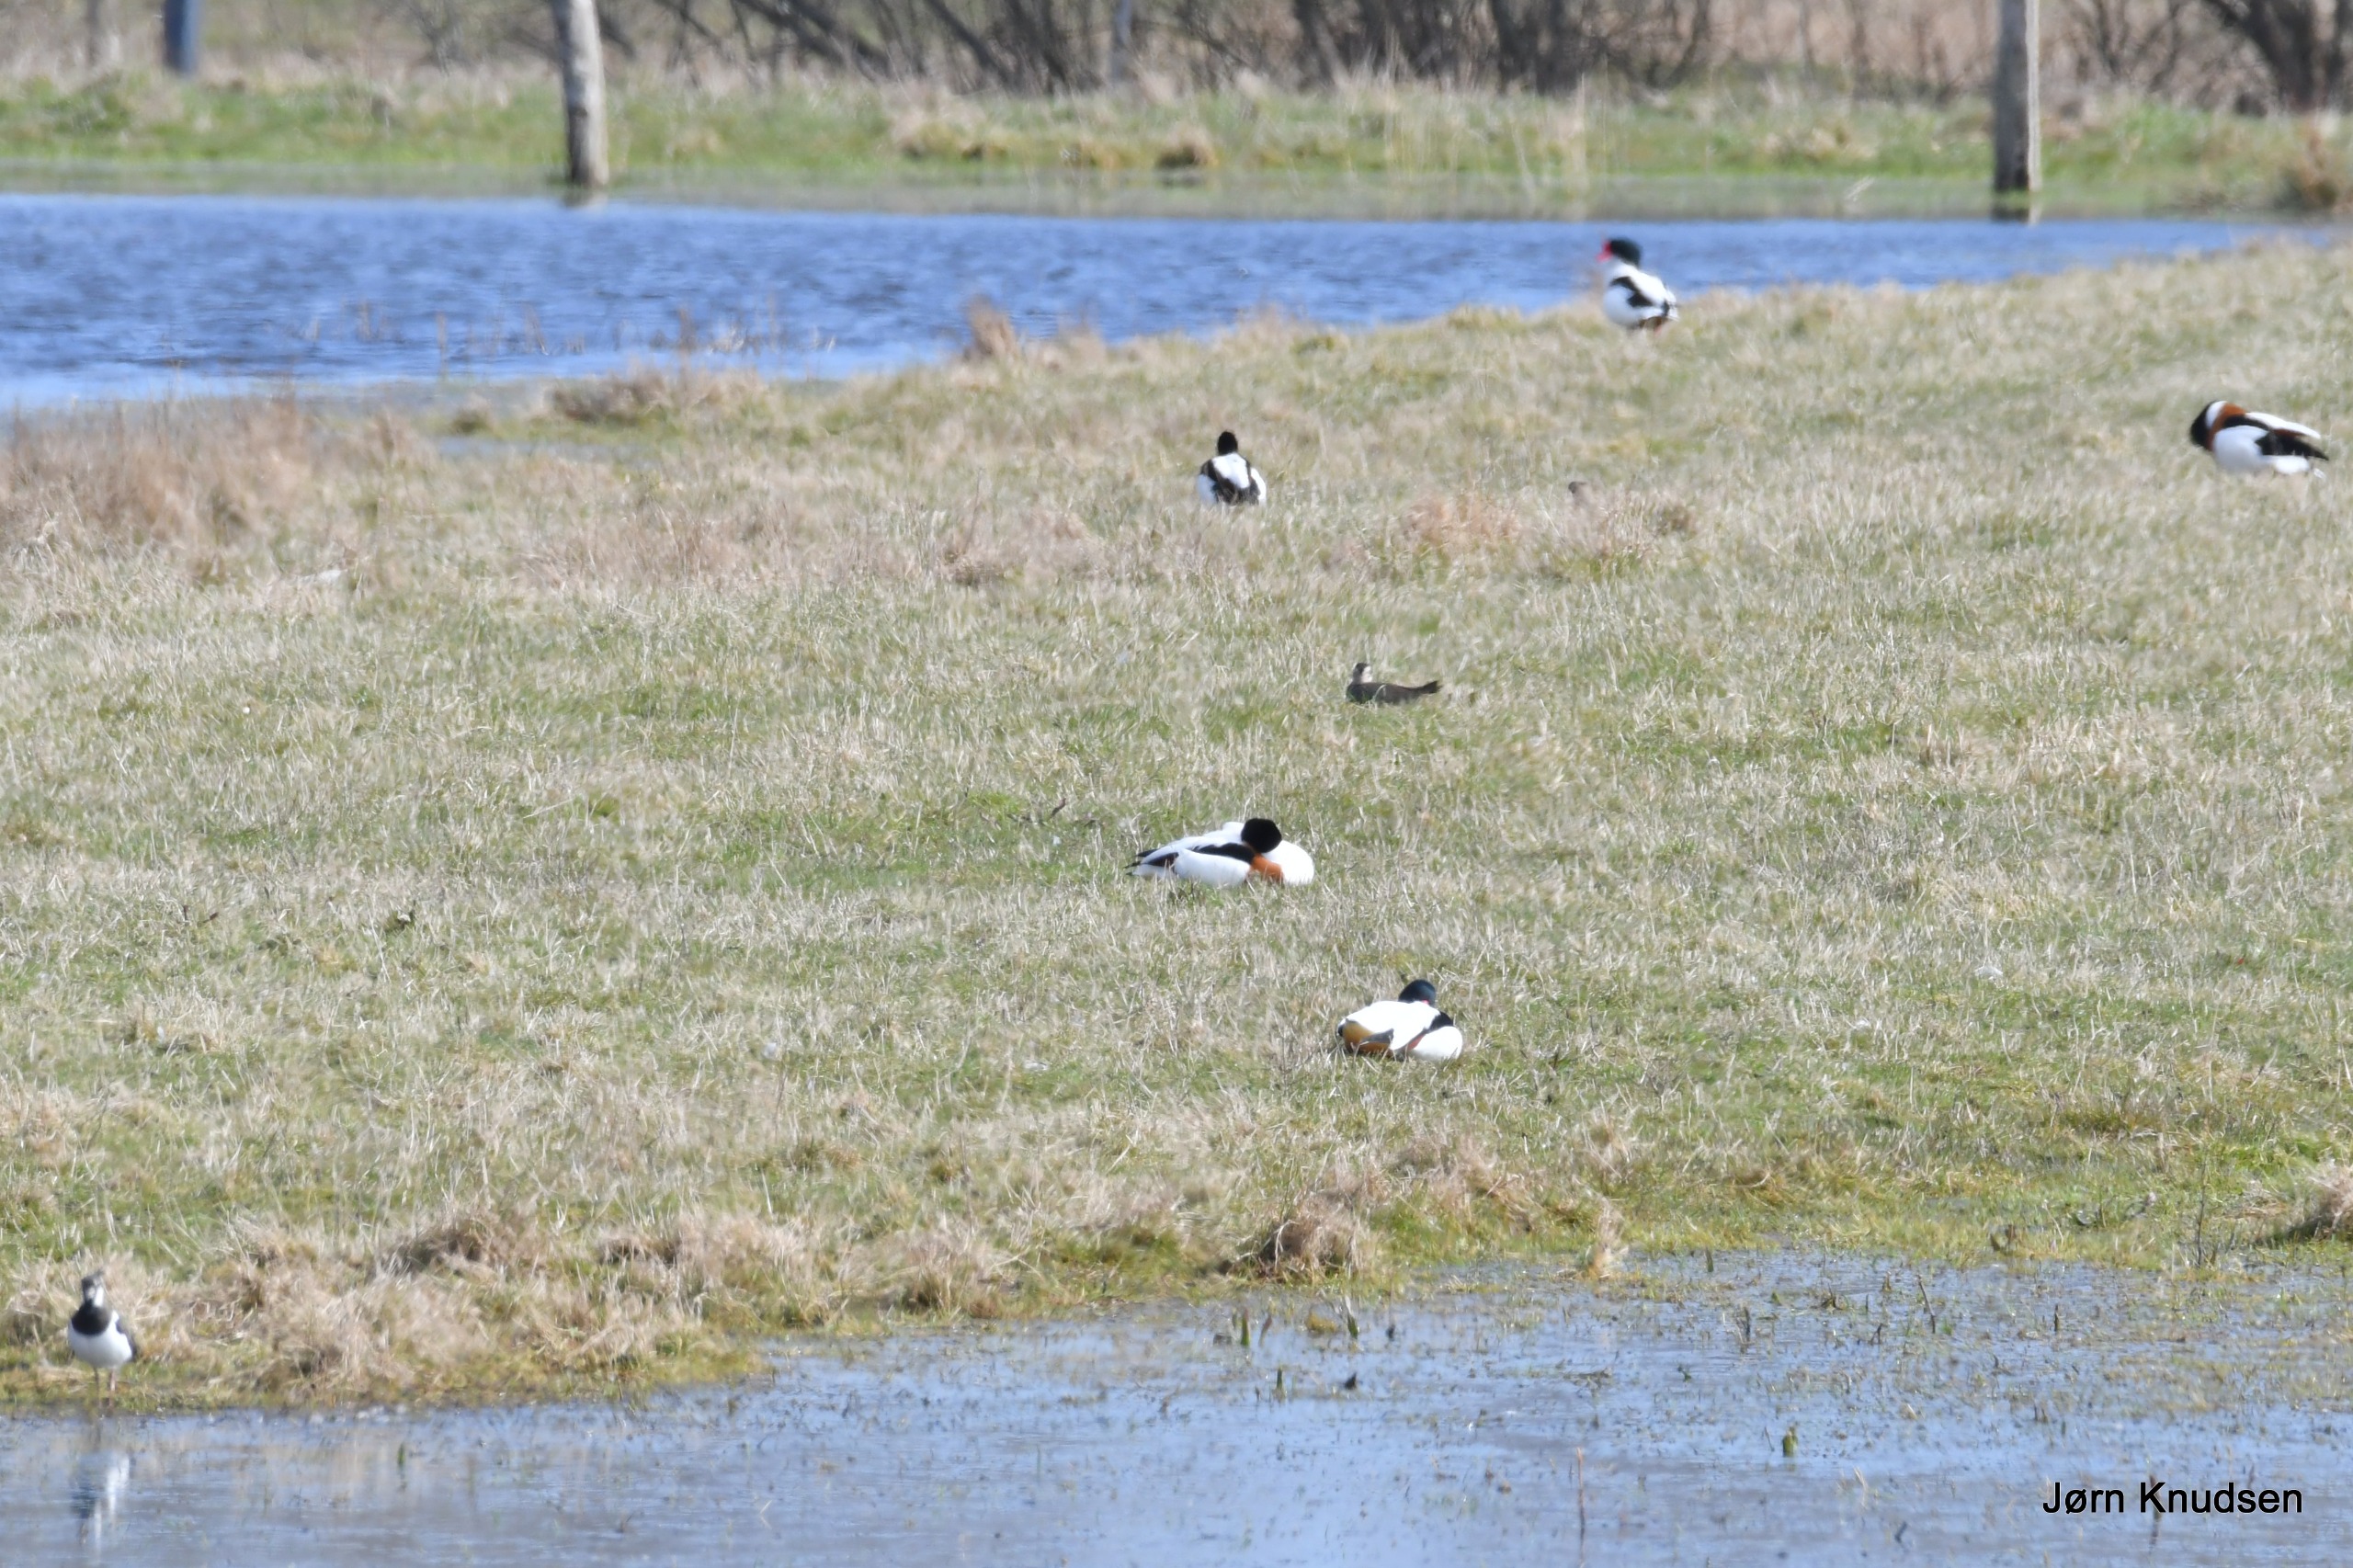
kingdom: Animalia
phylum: Chordata
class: Aves
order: Anseriformes
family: Anatidae
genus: Tadorna
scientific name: Tadorna tadorna
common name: Gravand
